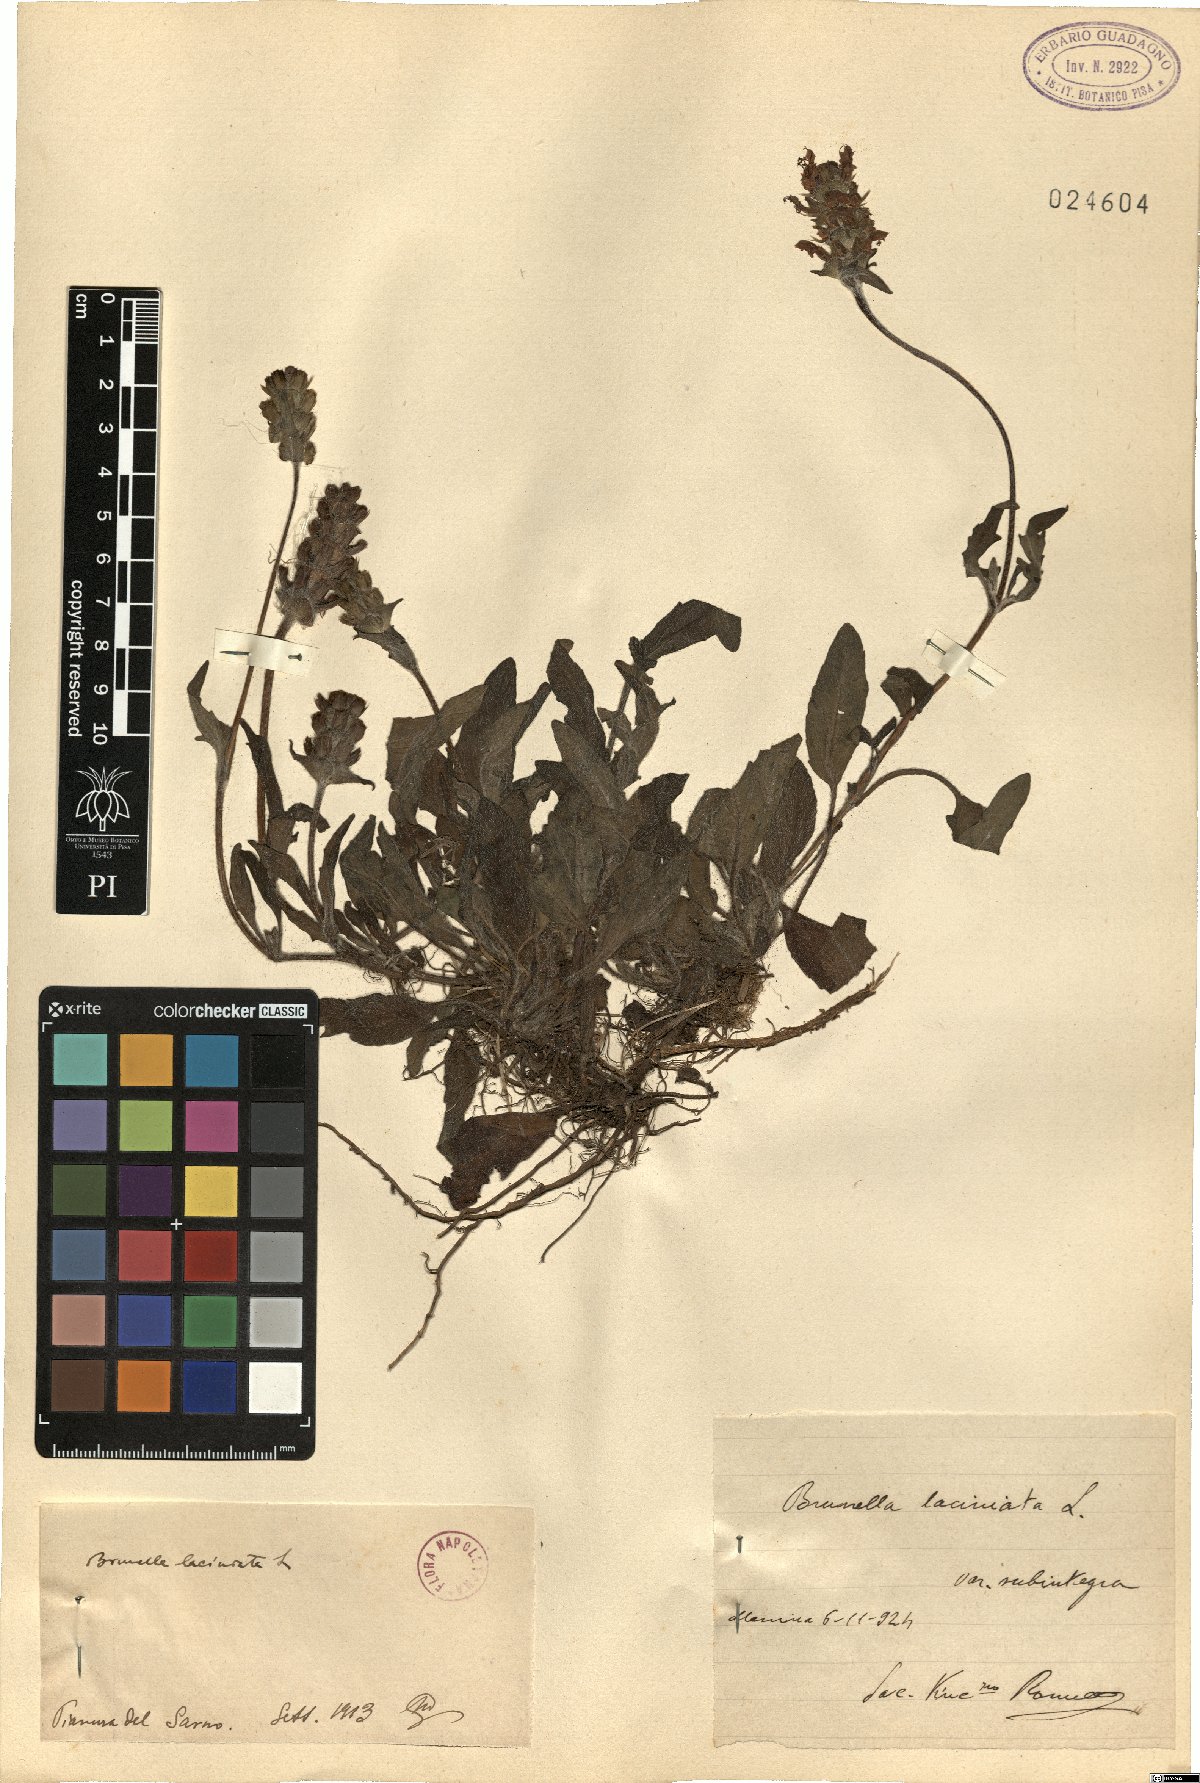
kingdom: Plantae
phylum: Tracheophyta
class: Magnoliopsida
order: Lamiales
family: Lamiaceae
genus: Prunella
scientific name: Prunella laciniata
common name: Cut-leaved selfheal
